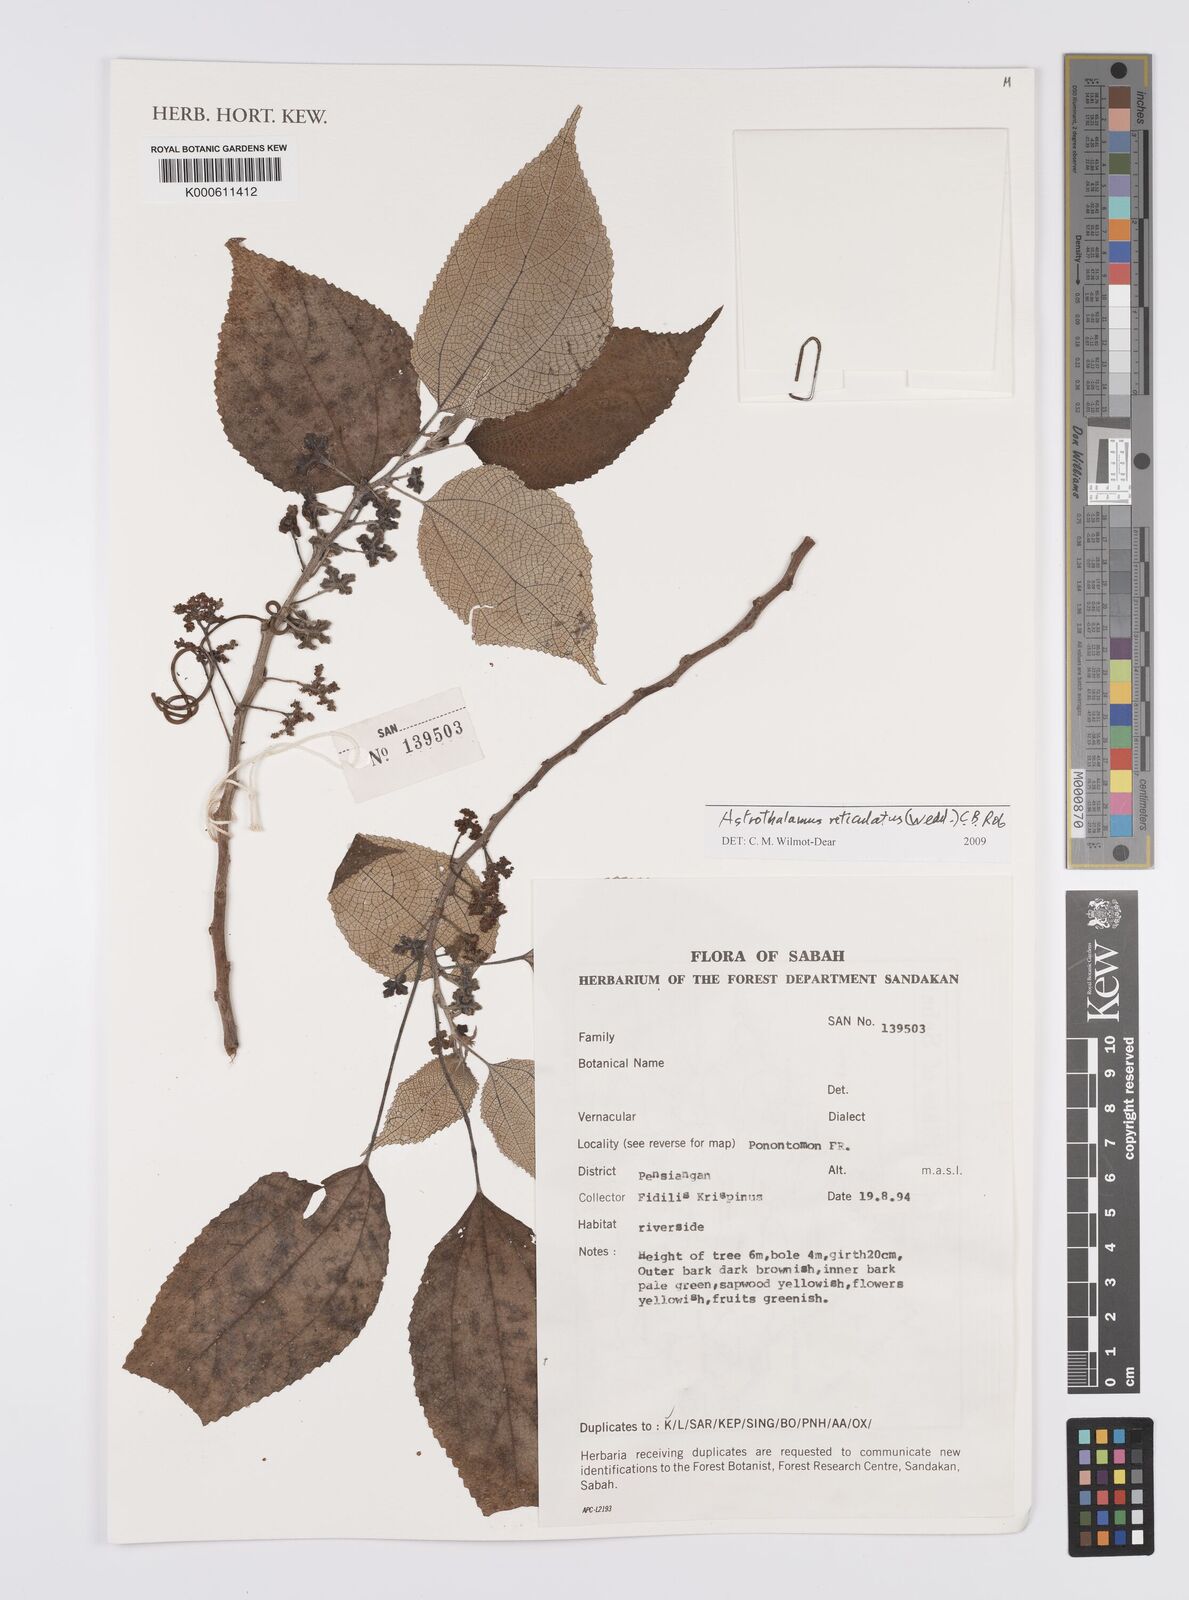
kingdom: Plantae
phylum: Tracheophyta
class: Magnoliopsida
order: Rosales
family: Urticaceae
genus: Astrothalamus
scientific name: Astrothalamus reticulatus
